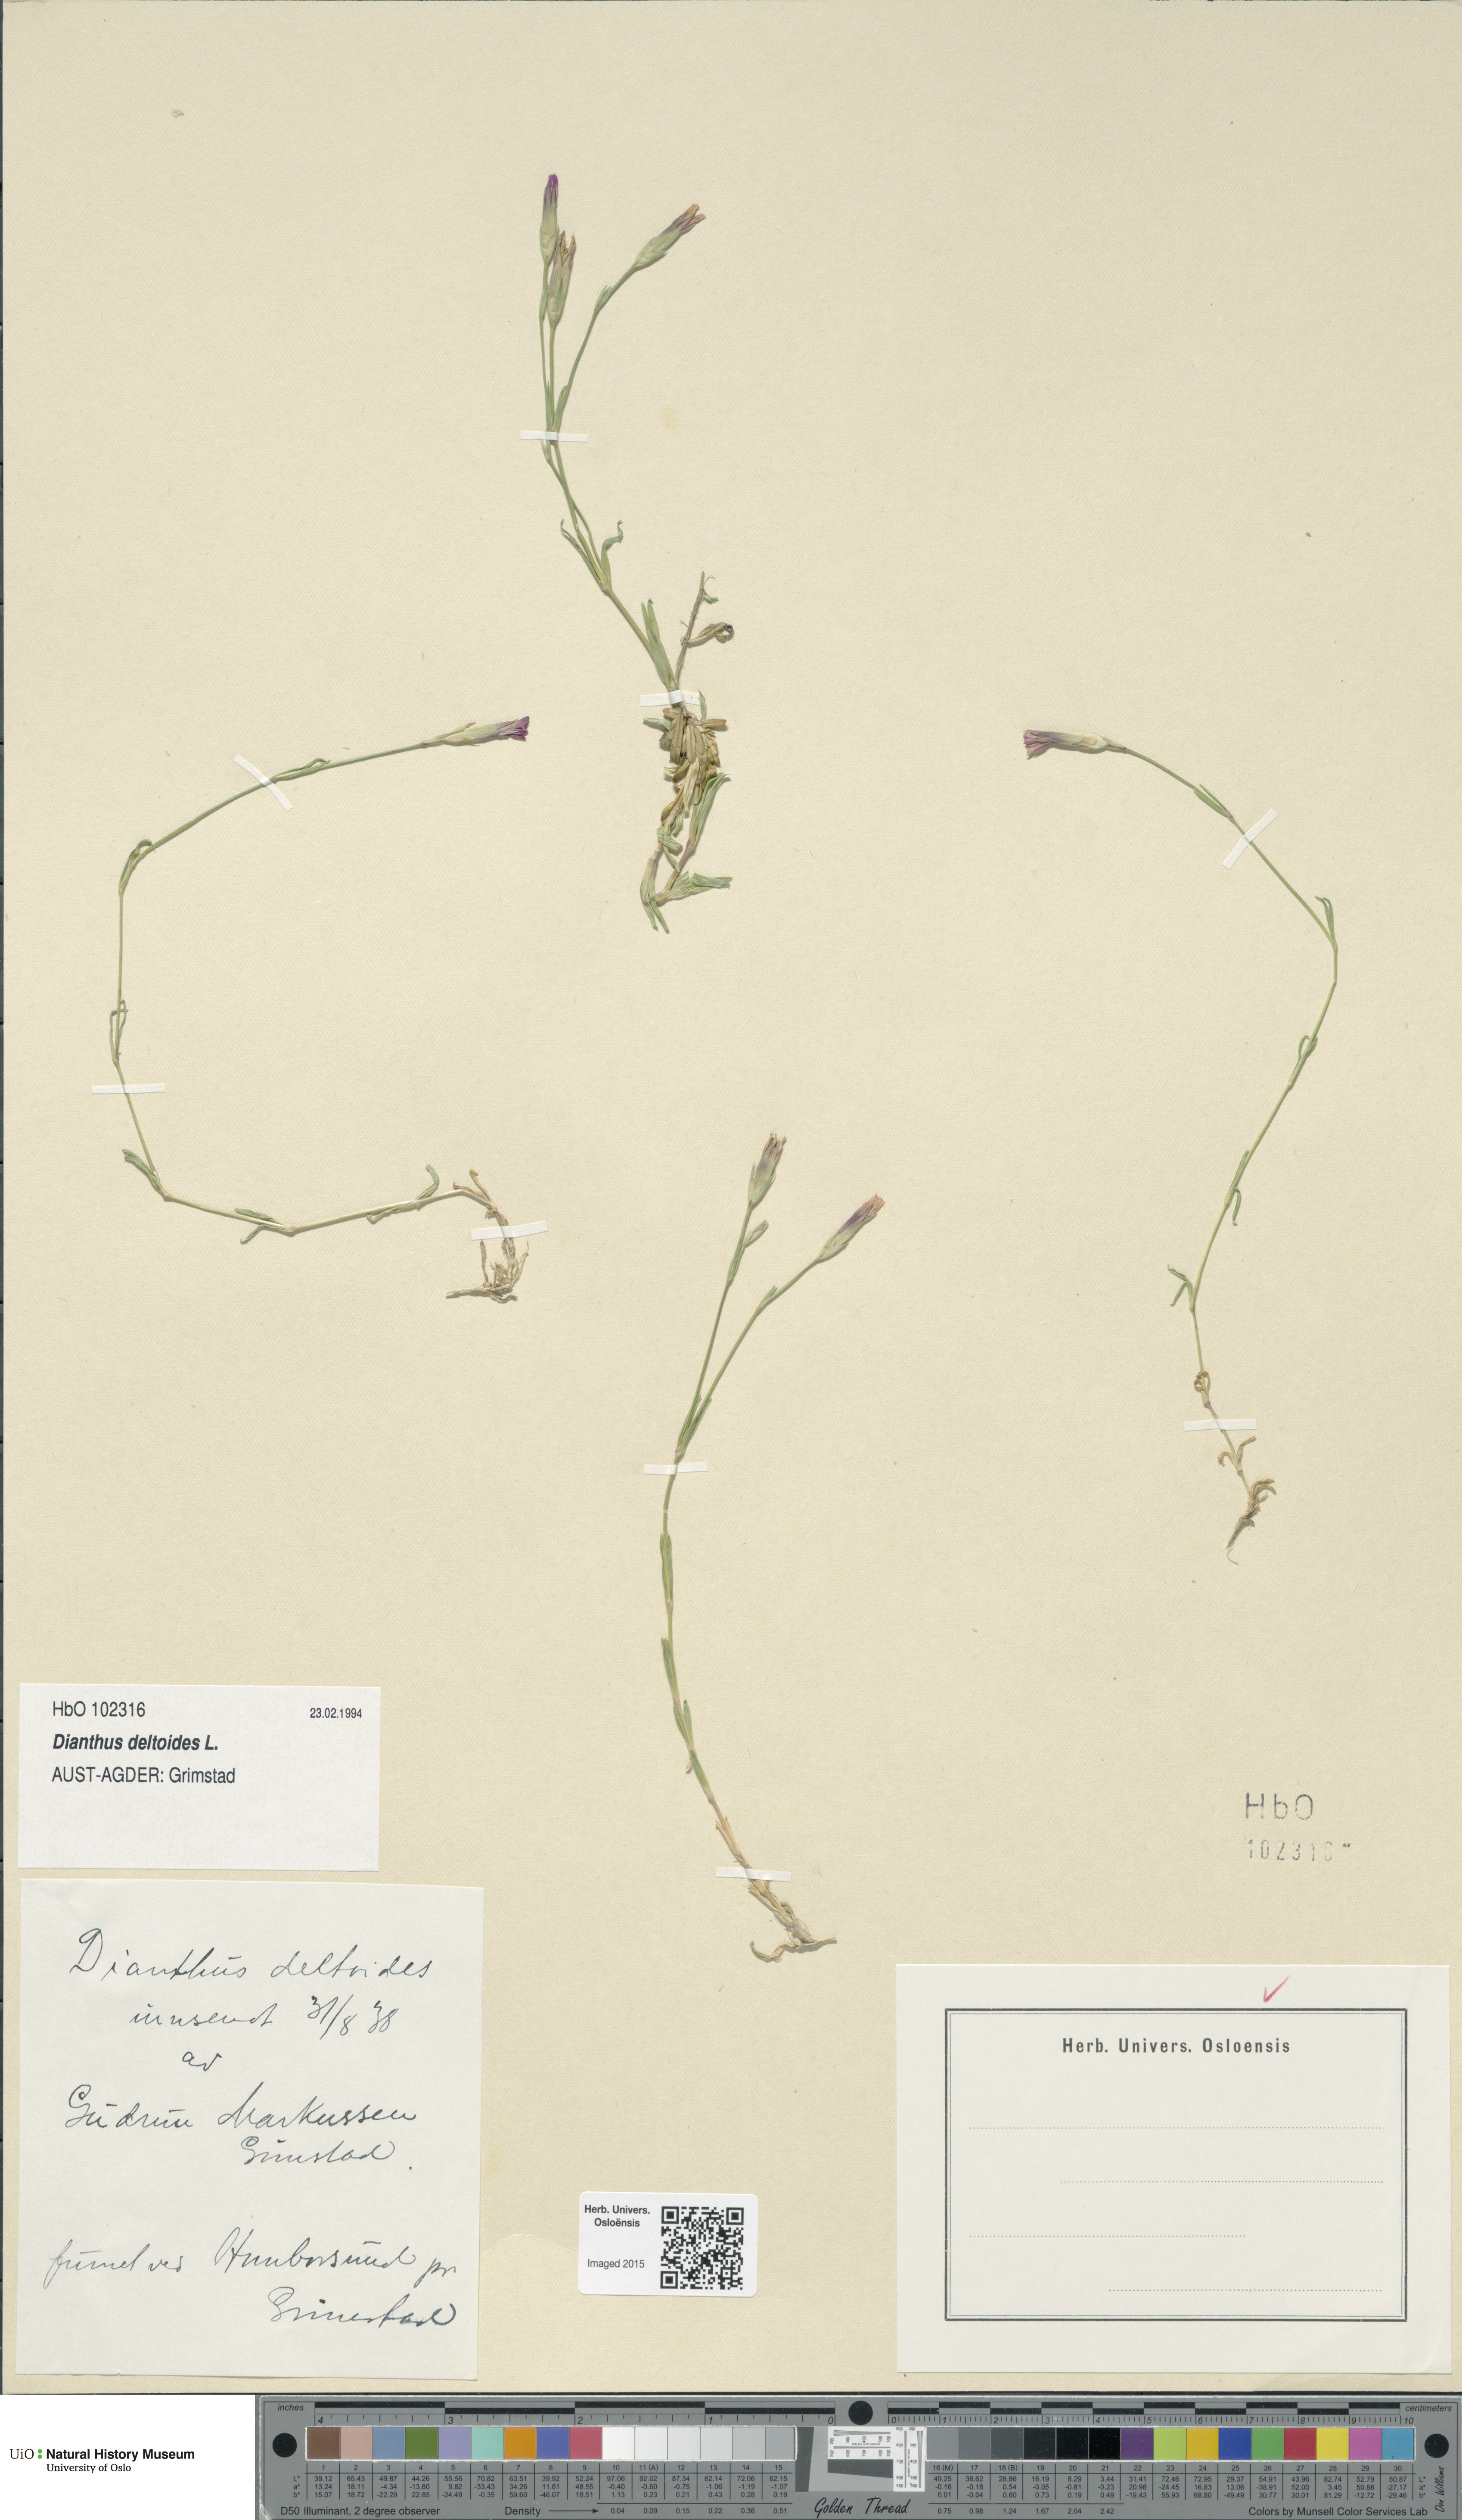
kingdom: Plantae
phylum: Tracheophyta
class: Magnoliopsida
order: Caryophyllales
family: Caryophyllaceae
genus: Dianthus
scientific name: Dianthus deltoides
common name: Maiden pink
